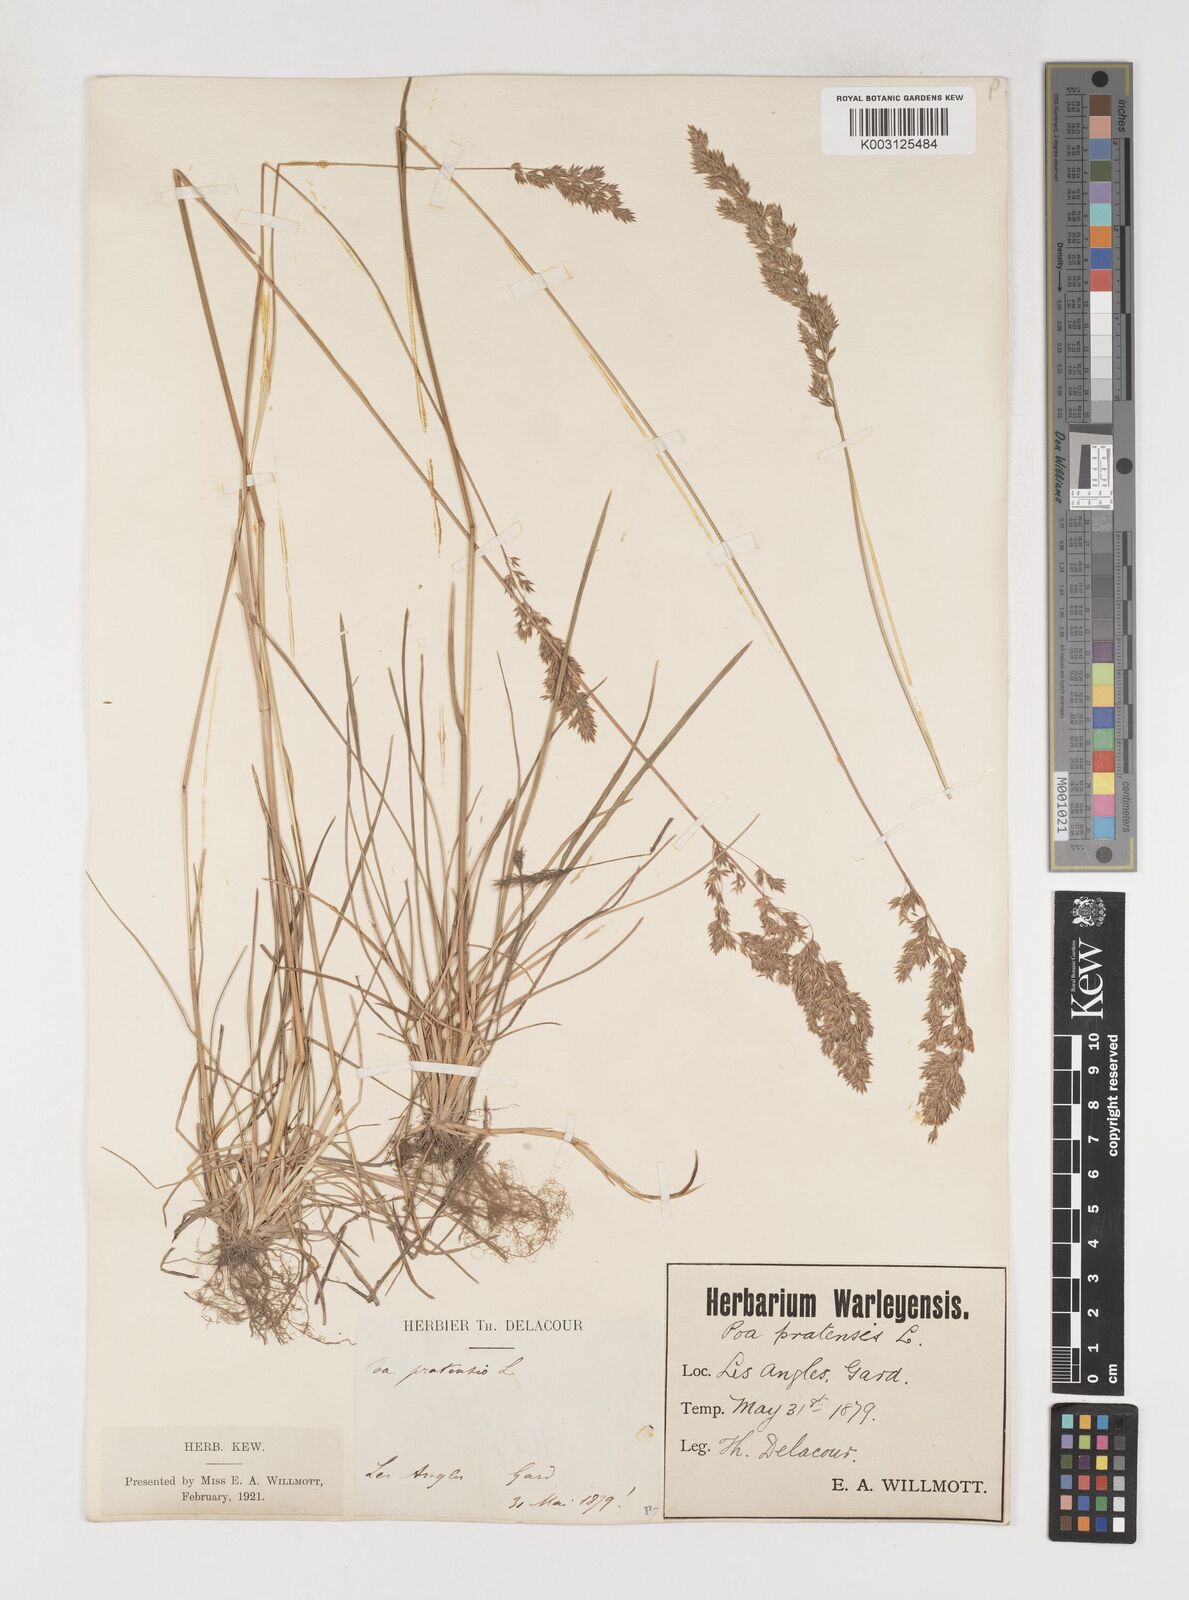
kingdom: Plantae
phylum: Tracheophyta
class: Liliopsida
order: Poales
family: Poaceae
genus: Poa
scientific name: Poa angustifolia
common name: Narrow-leaved meadow-grass
